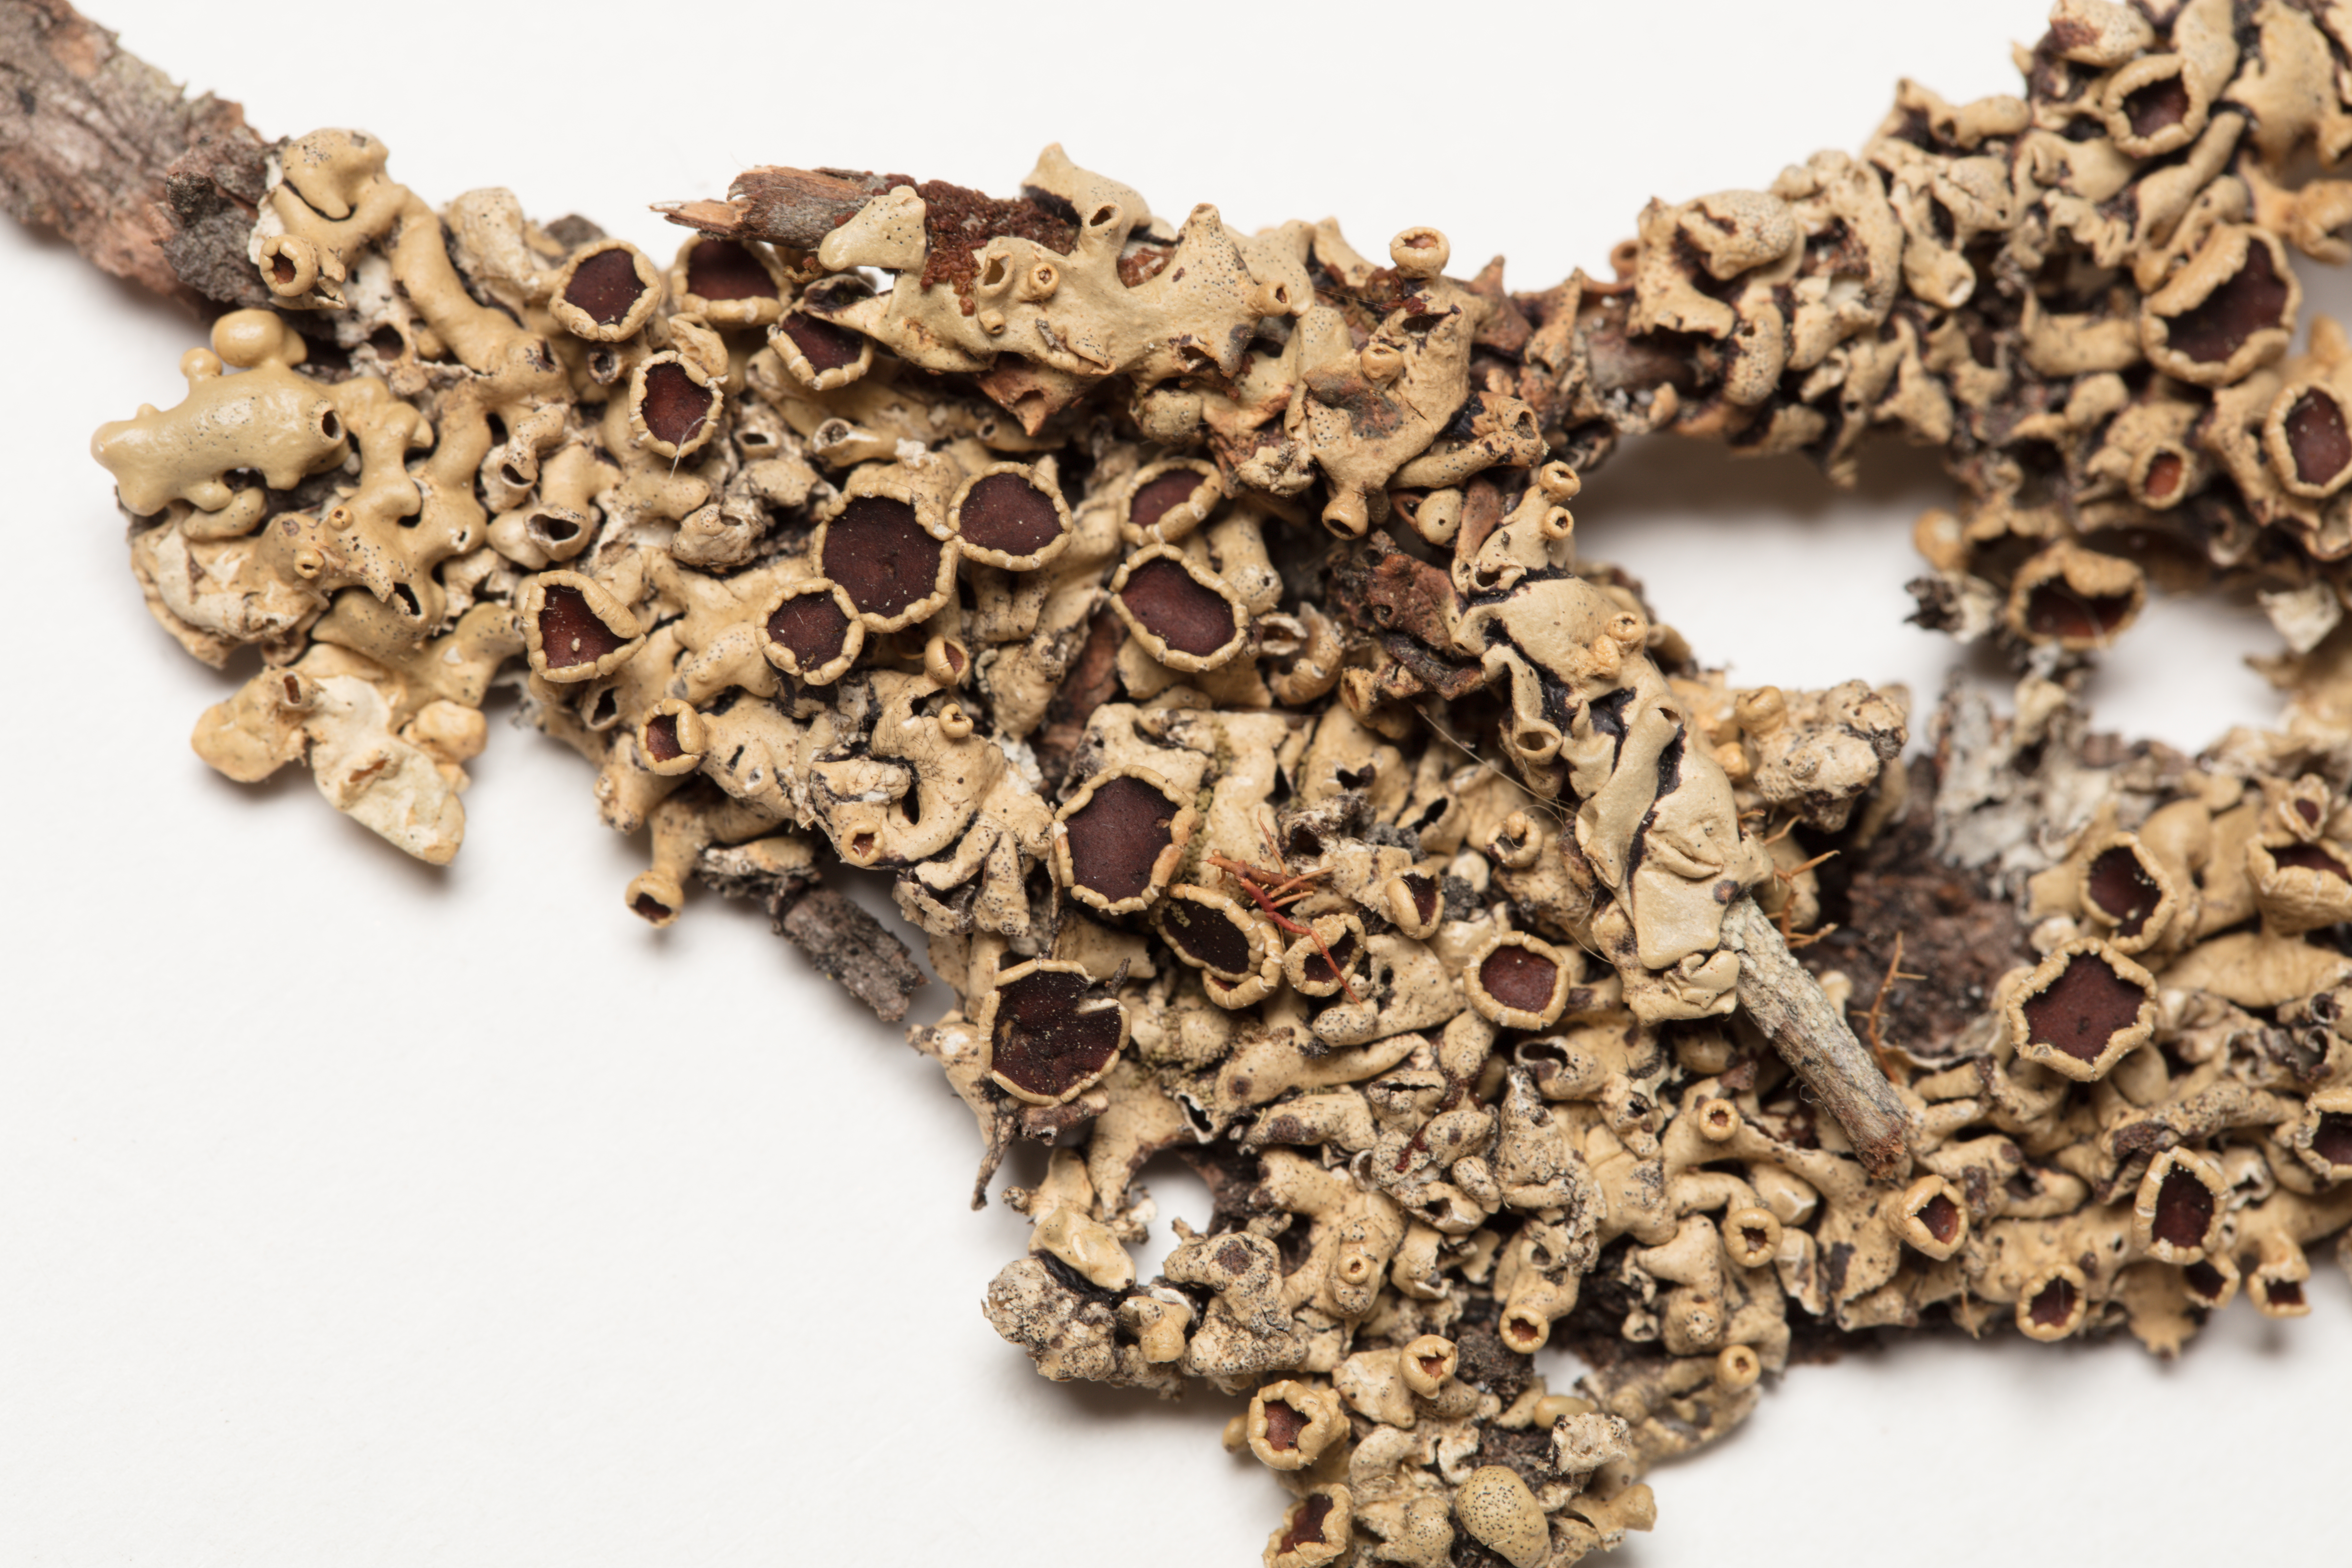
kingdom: Fungi
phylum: Ascomycota
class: Lecanoromycetes
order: Lecanorales
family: Parmeliaceae
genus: Menegazzia
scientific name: Menegazzia
